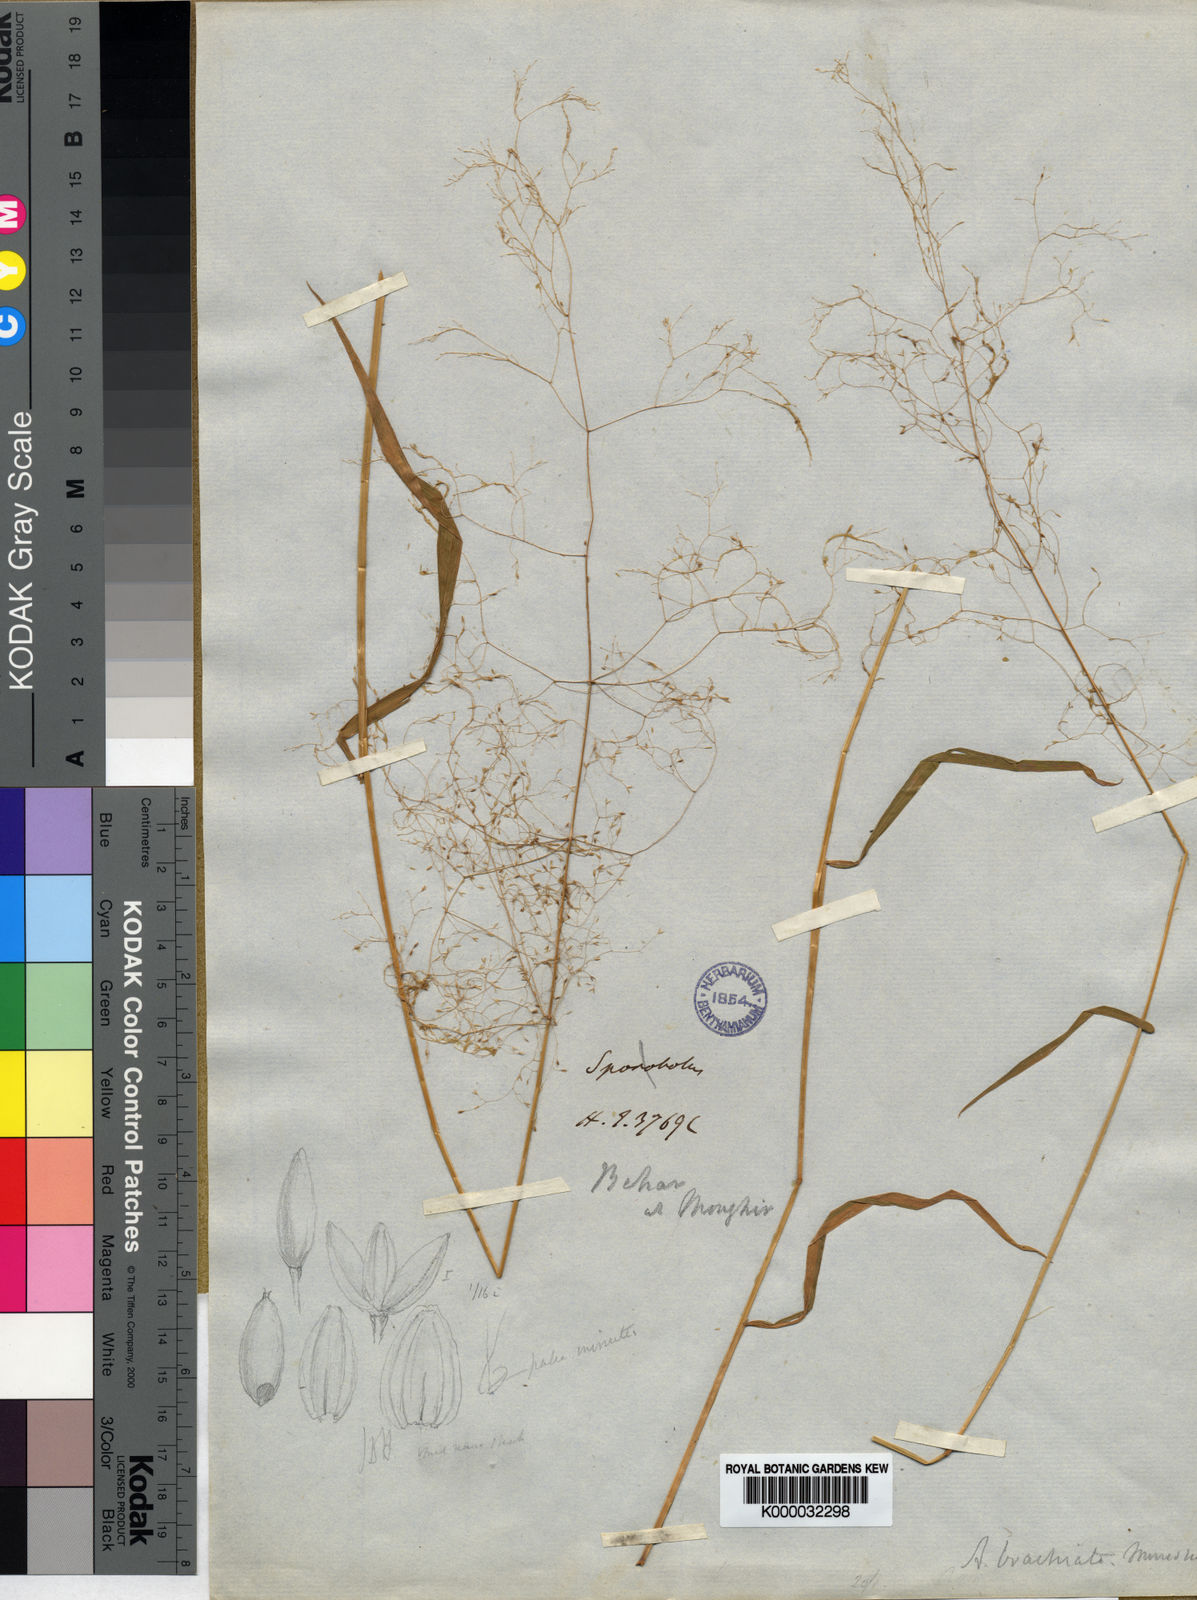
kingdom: Plantae
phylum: Tracheophyta
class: Liliopsida
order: Poales
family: Poaceae
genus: Agrostis
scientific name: Agrostis brachiata
